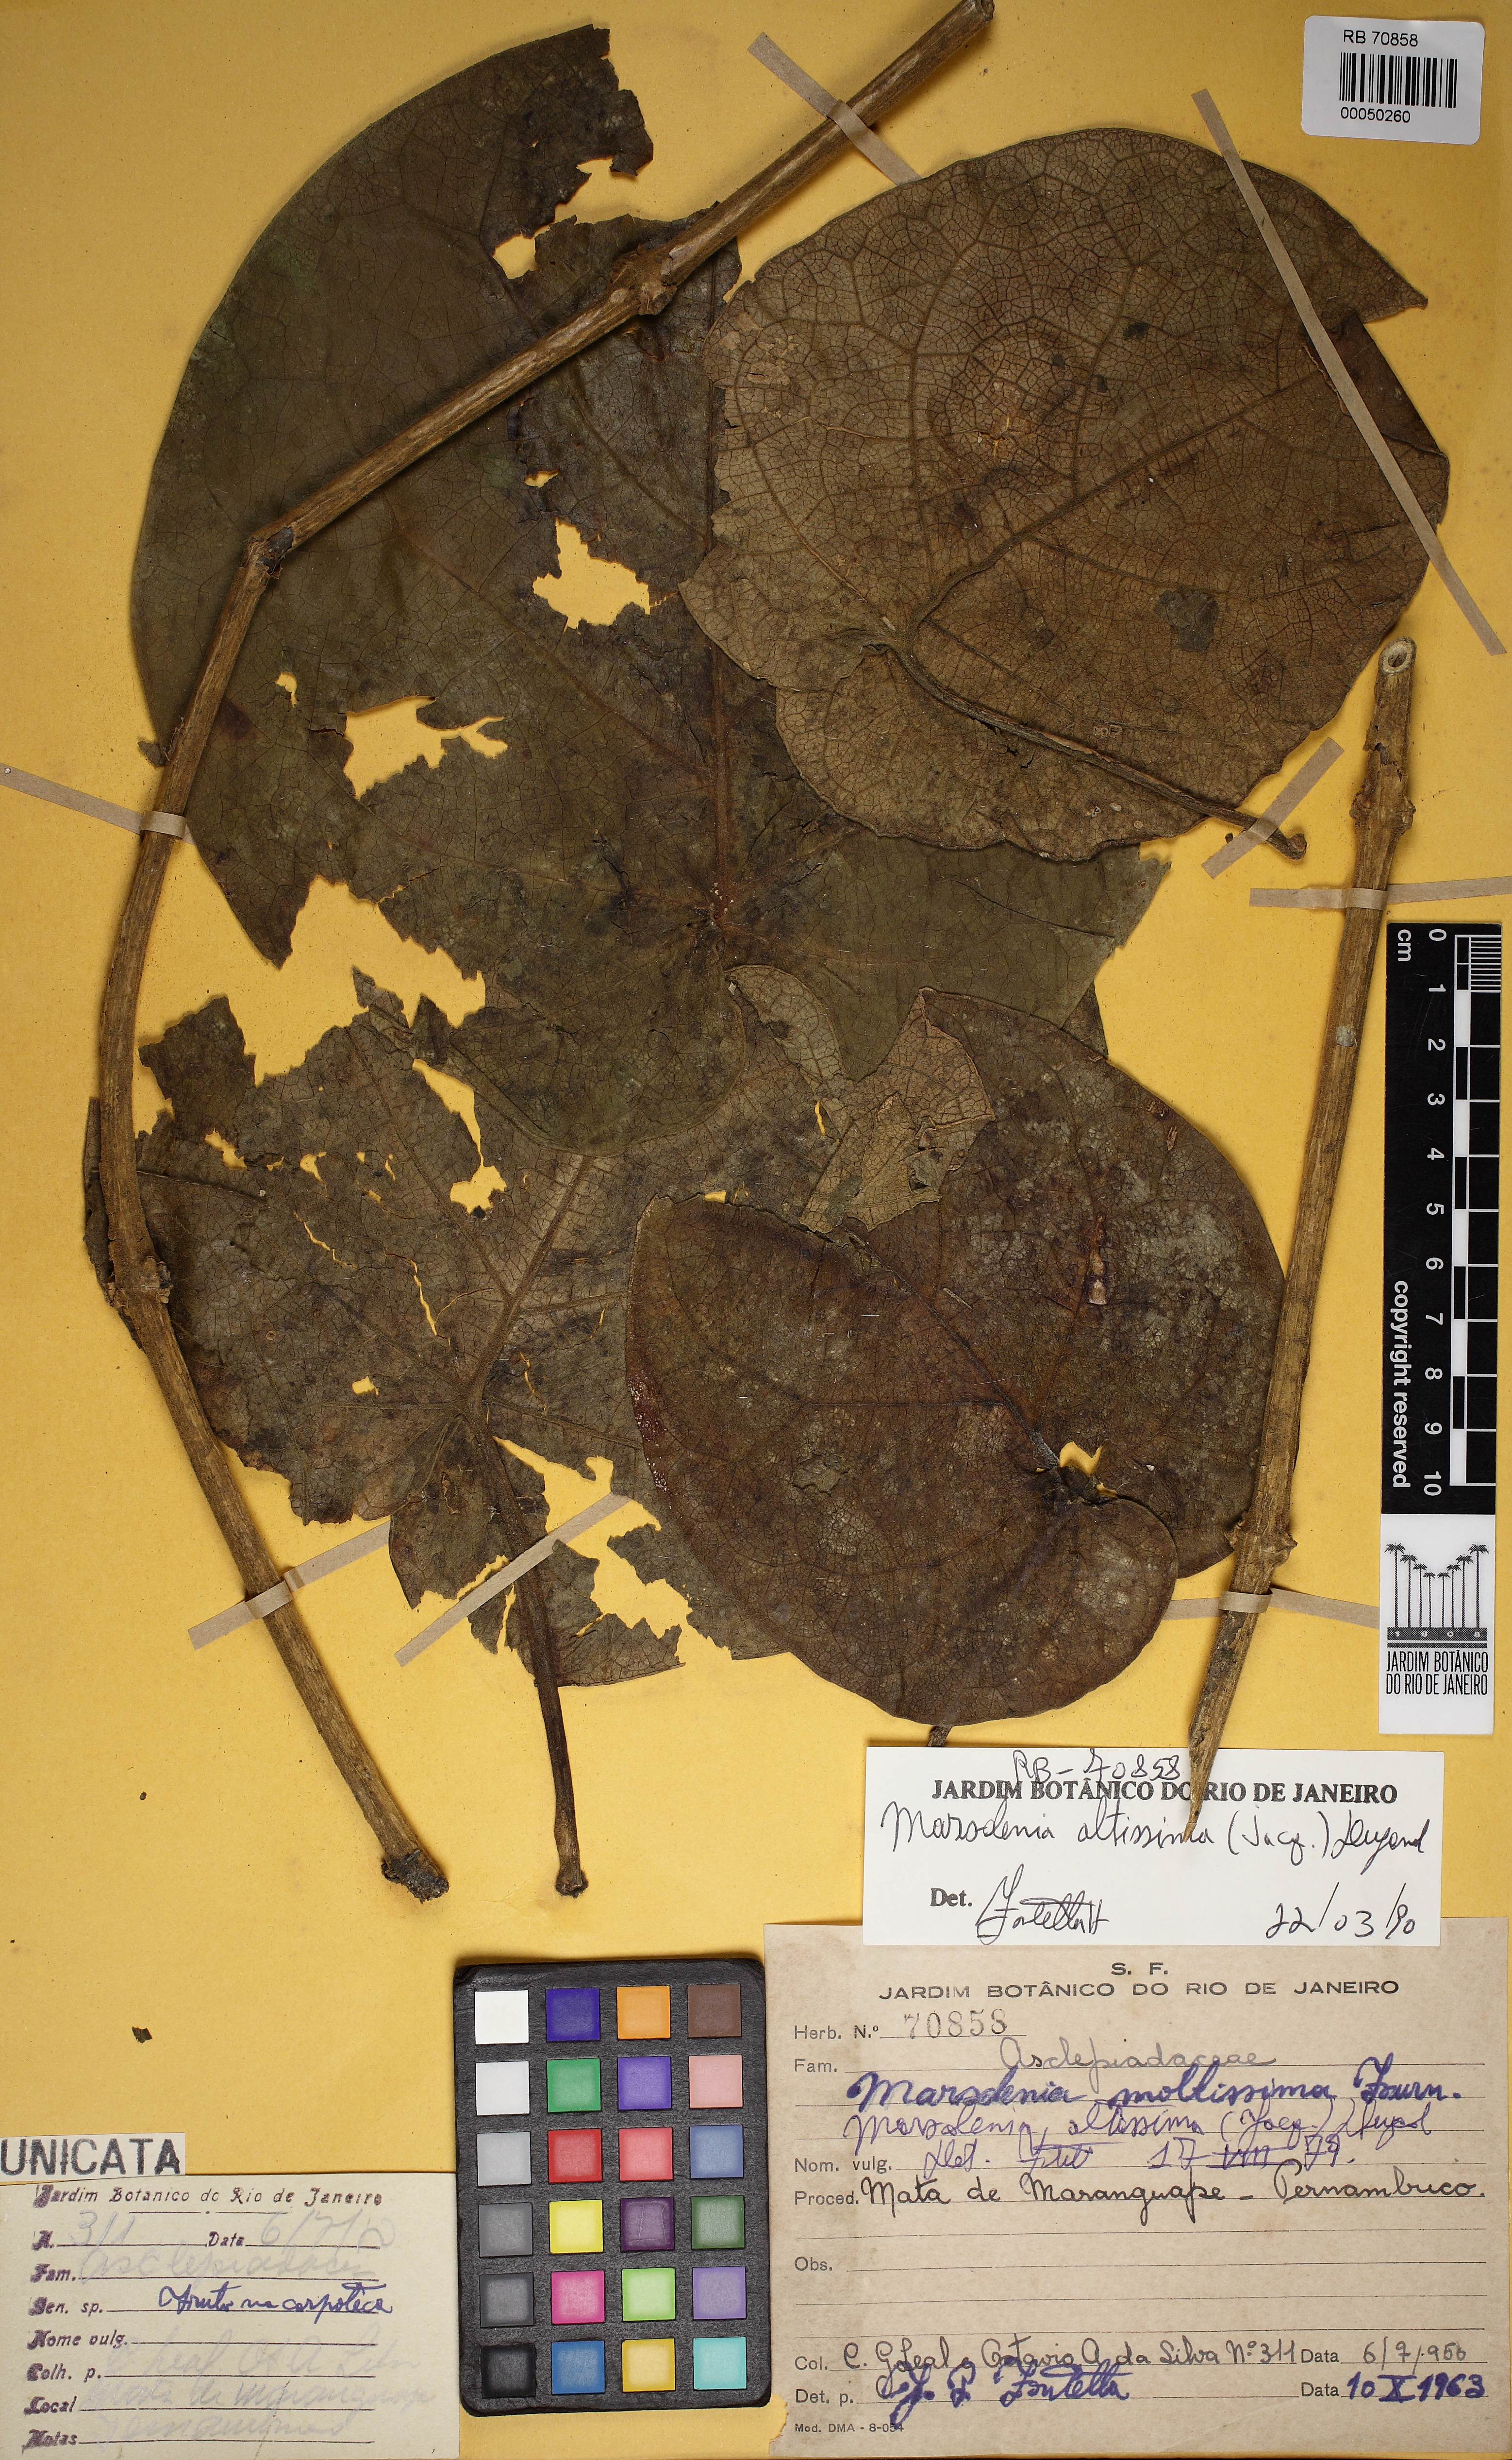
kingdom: Plantae
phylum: Tracheophyta
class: Magnoliopsida
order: Gentianales
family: Apocynaceae
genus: Ruehssia
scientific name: Ruehssia altissima
